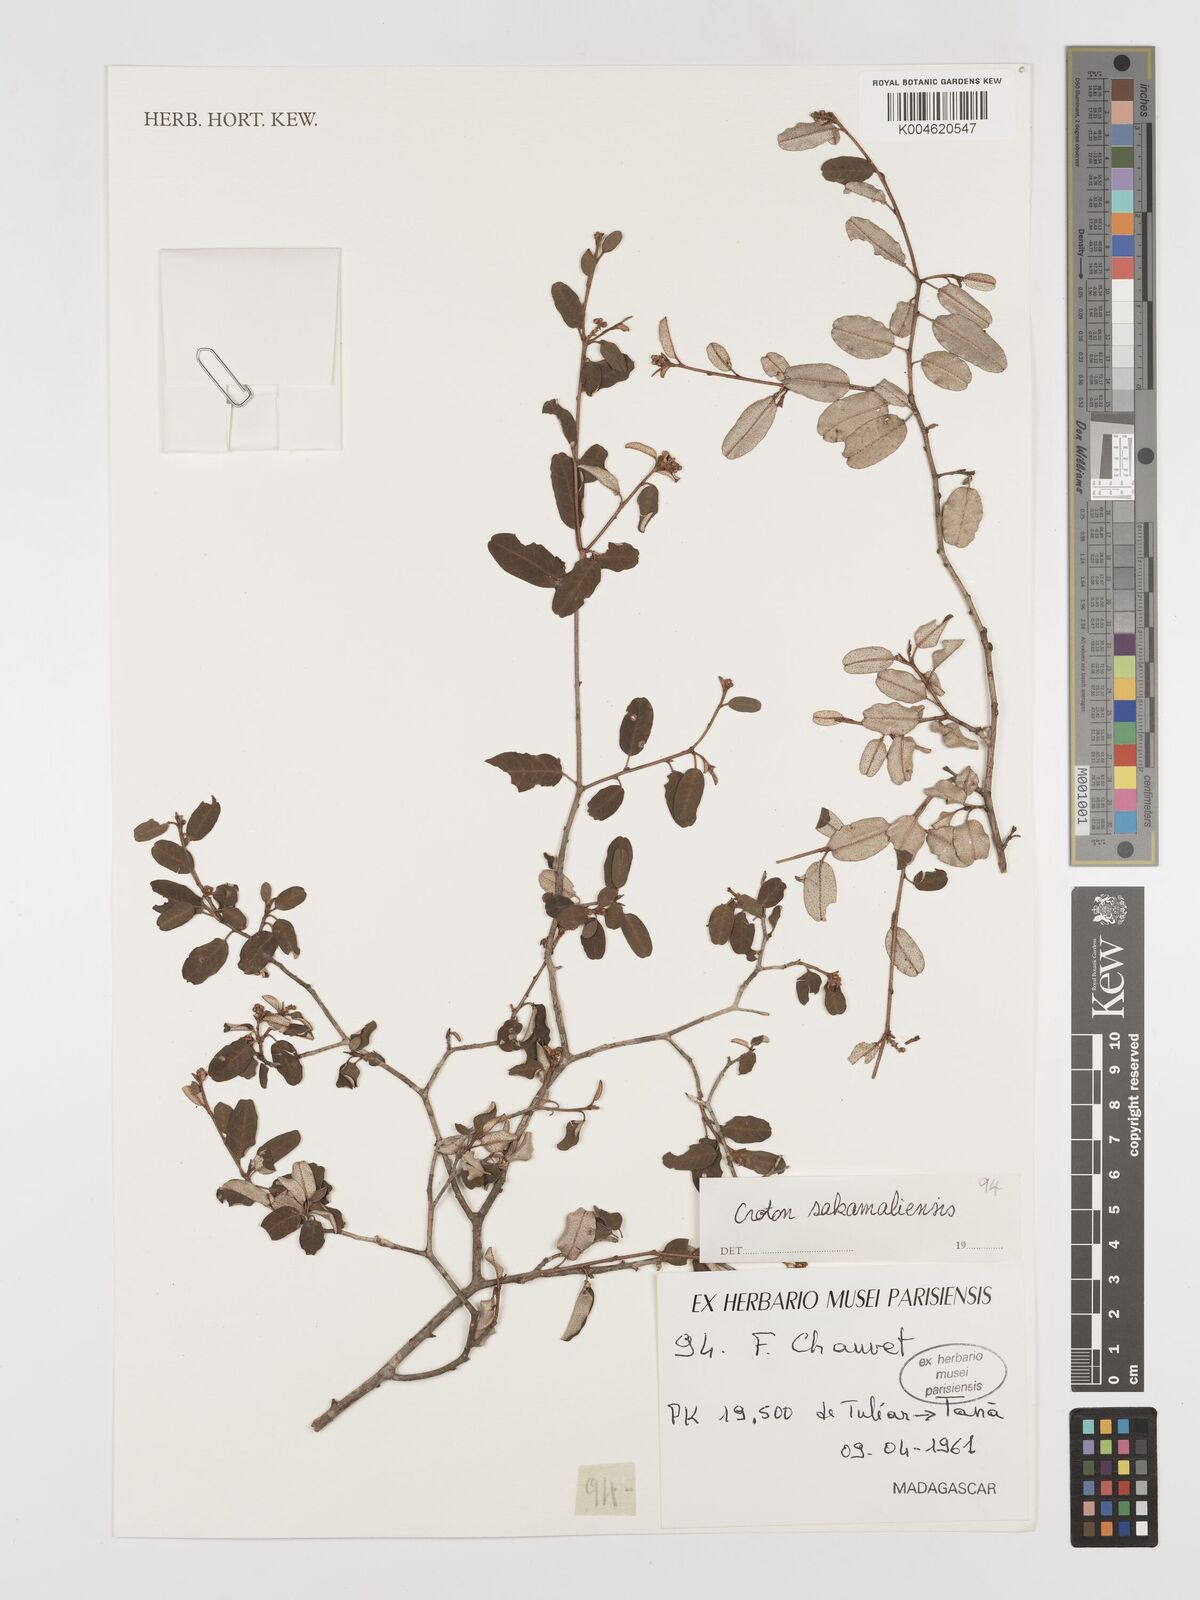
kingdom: Plantae
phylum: Tracheophyta
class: Magnoliopsida
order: Malpighiales
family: Euphorbiaceae
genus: Croton
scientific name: Croton sakamaliensis
